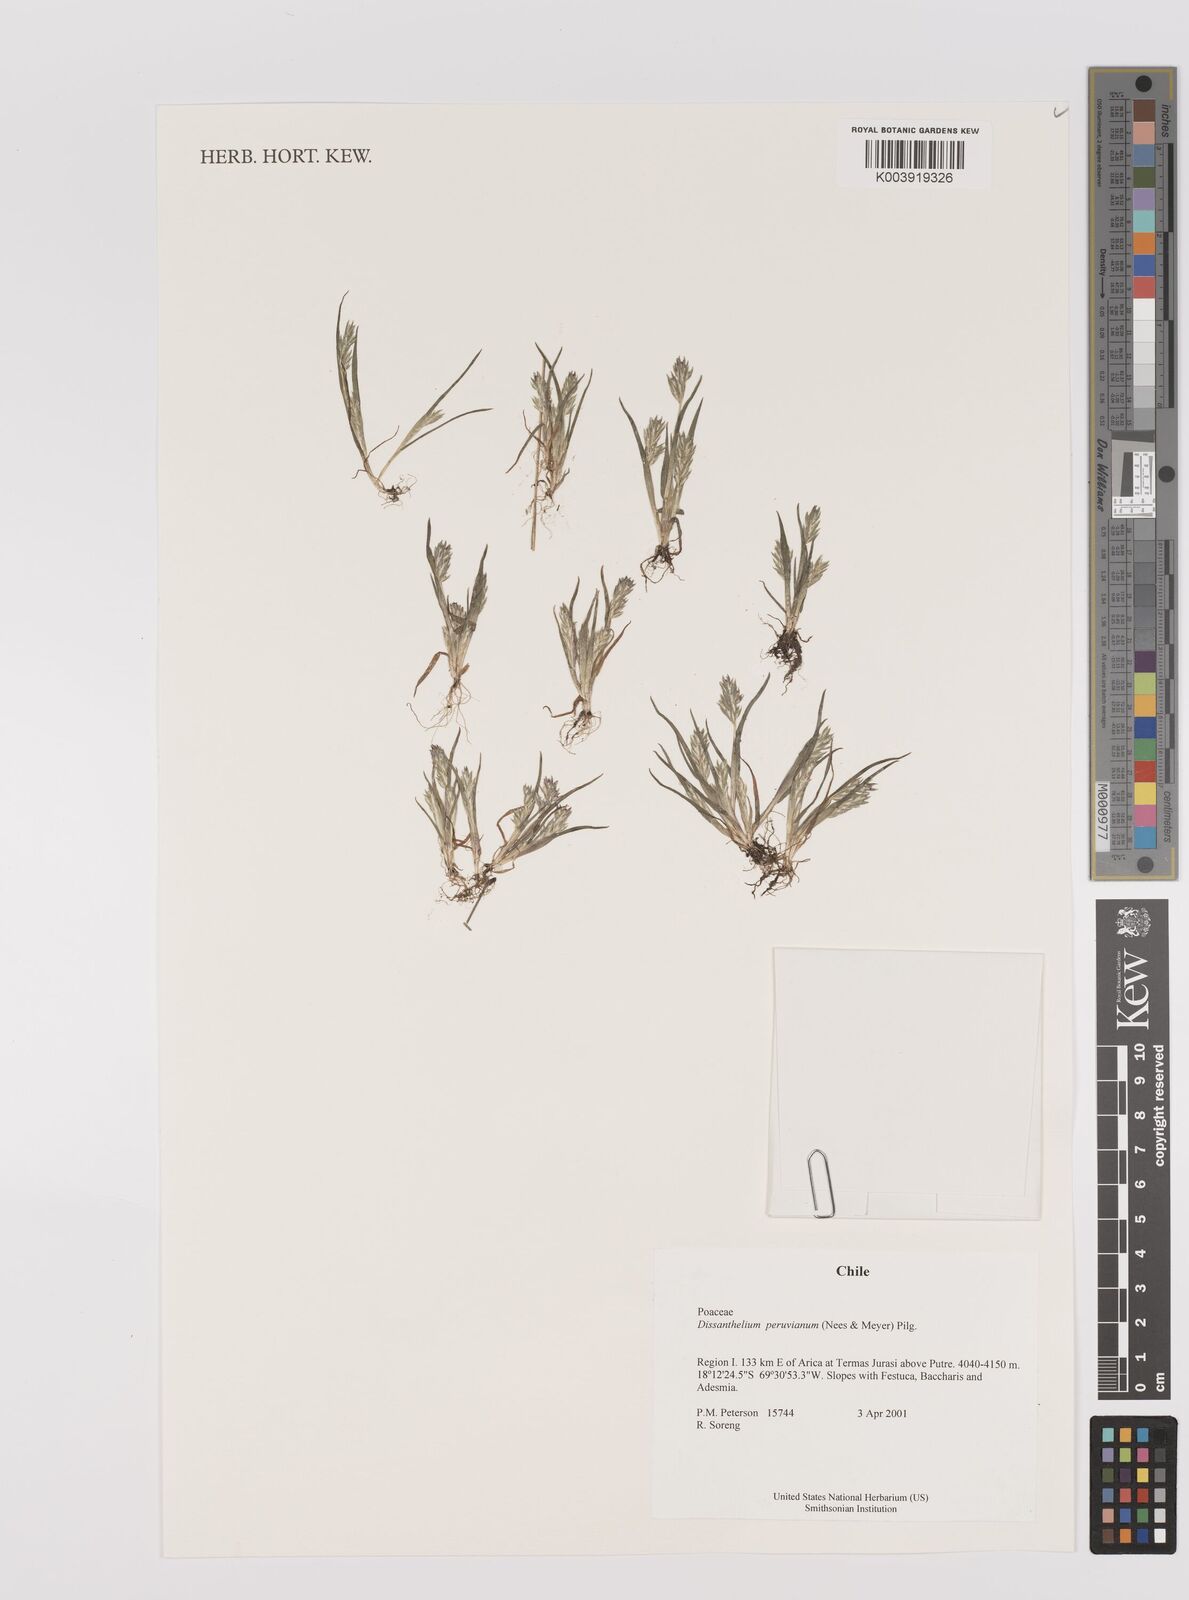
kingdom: Plantae
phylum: Tracheophyta
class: Liliopsida
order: Poales
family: Poaceae
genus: Poa
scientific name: Poa serpana
